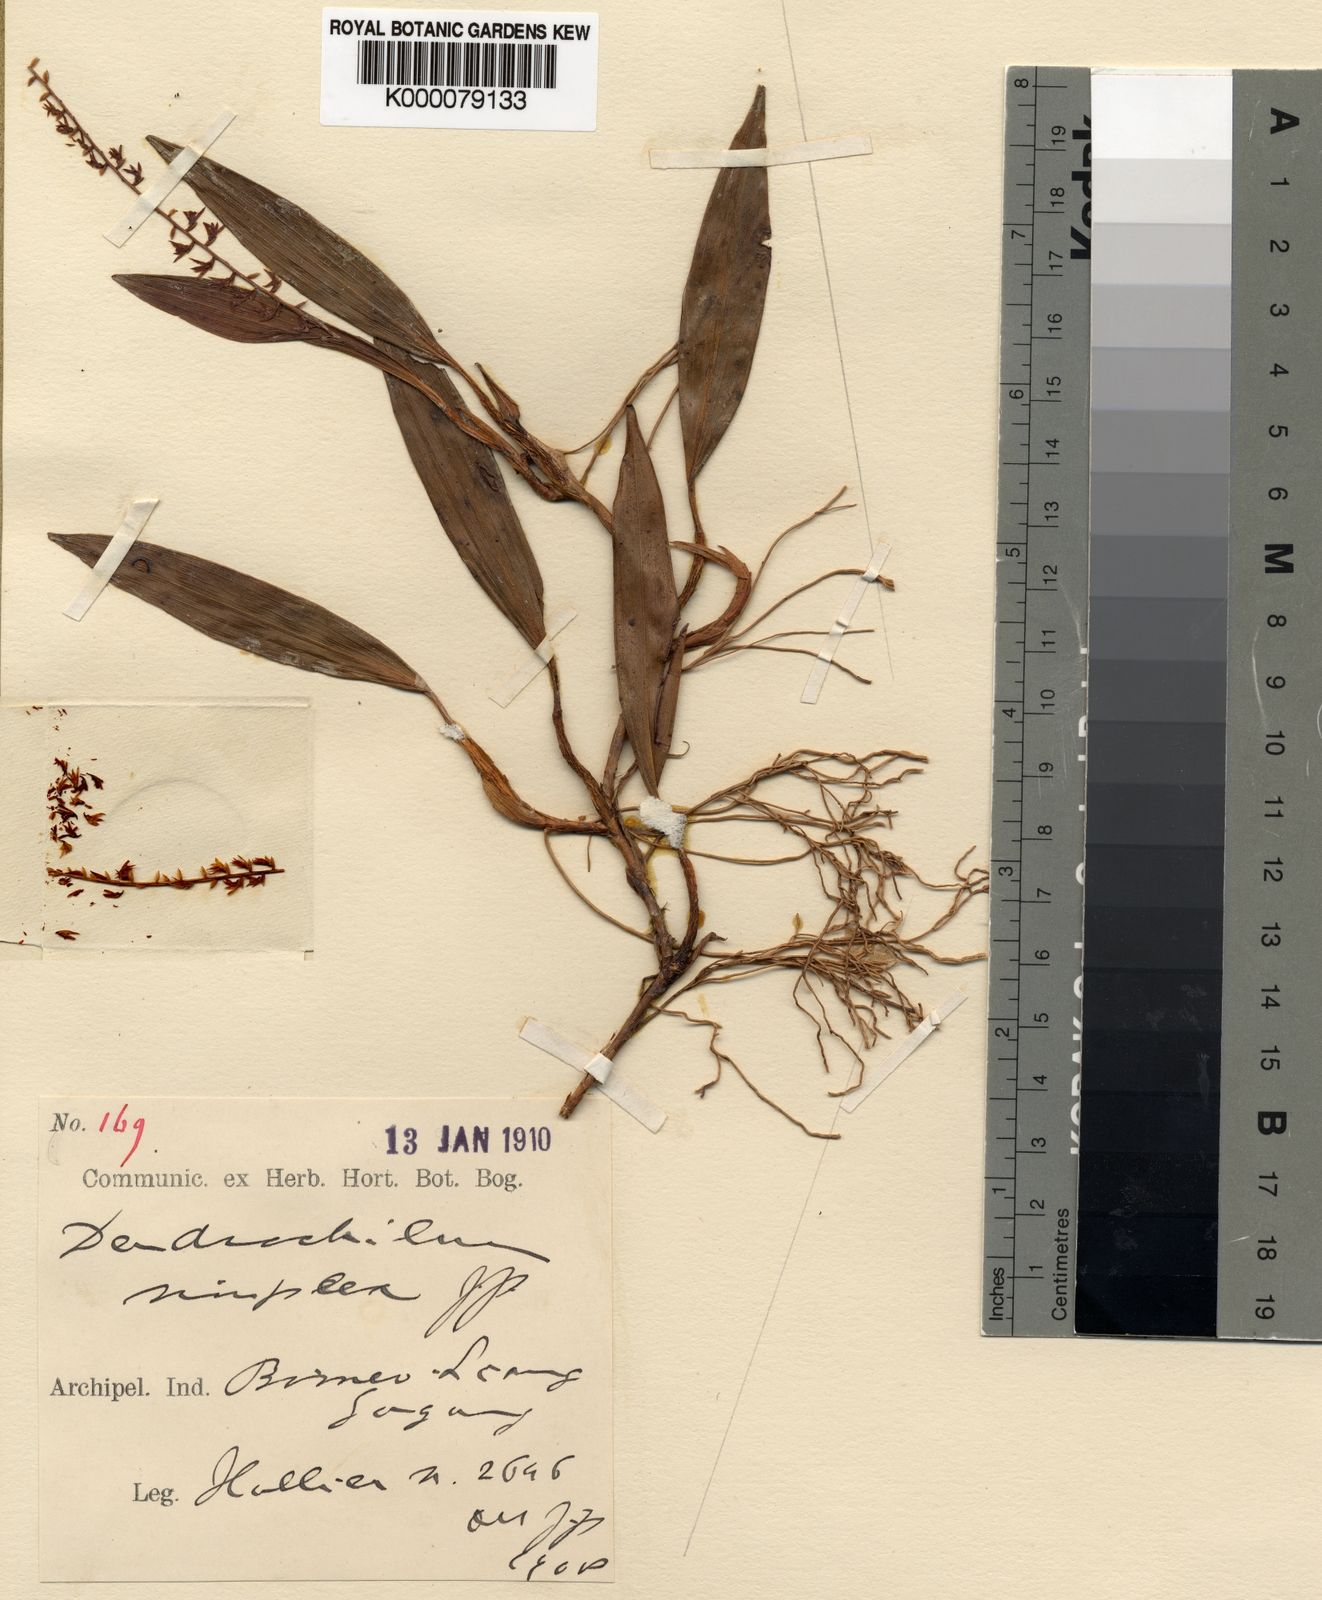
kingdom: Plantae
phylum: Tracheophyta
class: Liliopsida
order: Asparagales
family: Orchidaceae
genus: Coelogyne
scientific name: Coelogyne remota
